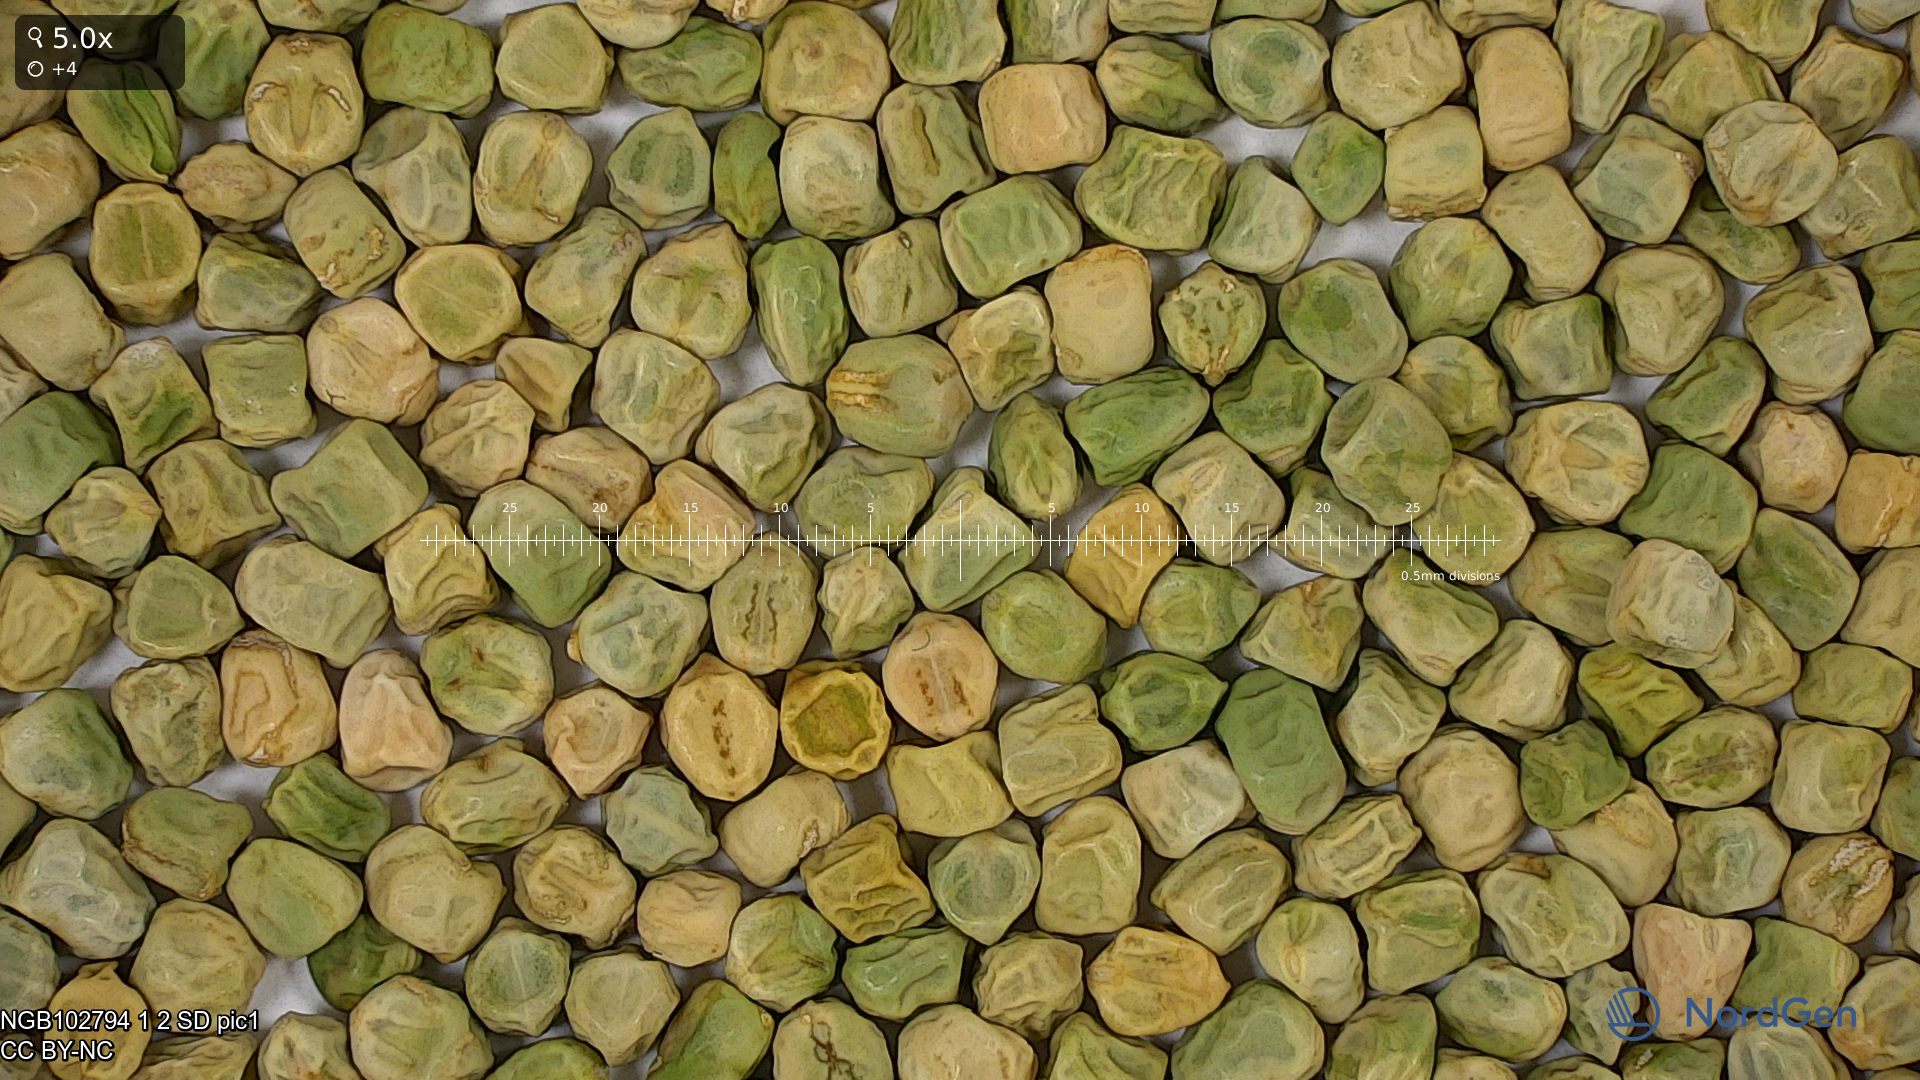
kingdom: Plantae
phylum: Tracheophyta
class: Magnoliopsida
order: Fabales
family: Fabaceae
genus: Lathyrus
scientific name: Lathyrus oleraceus
